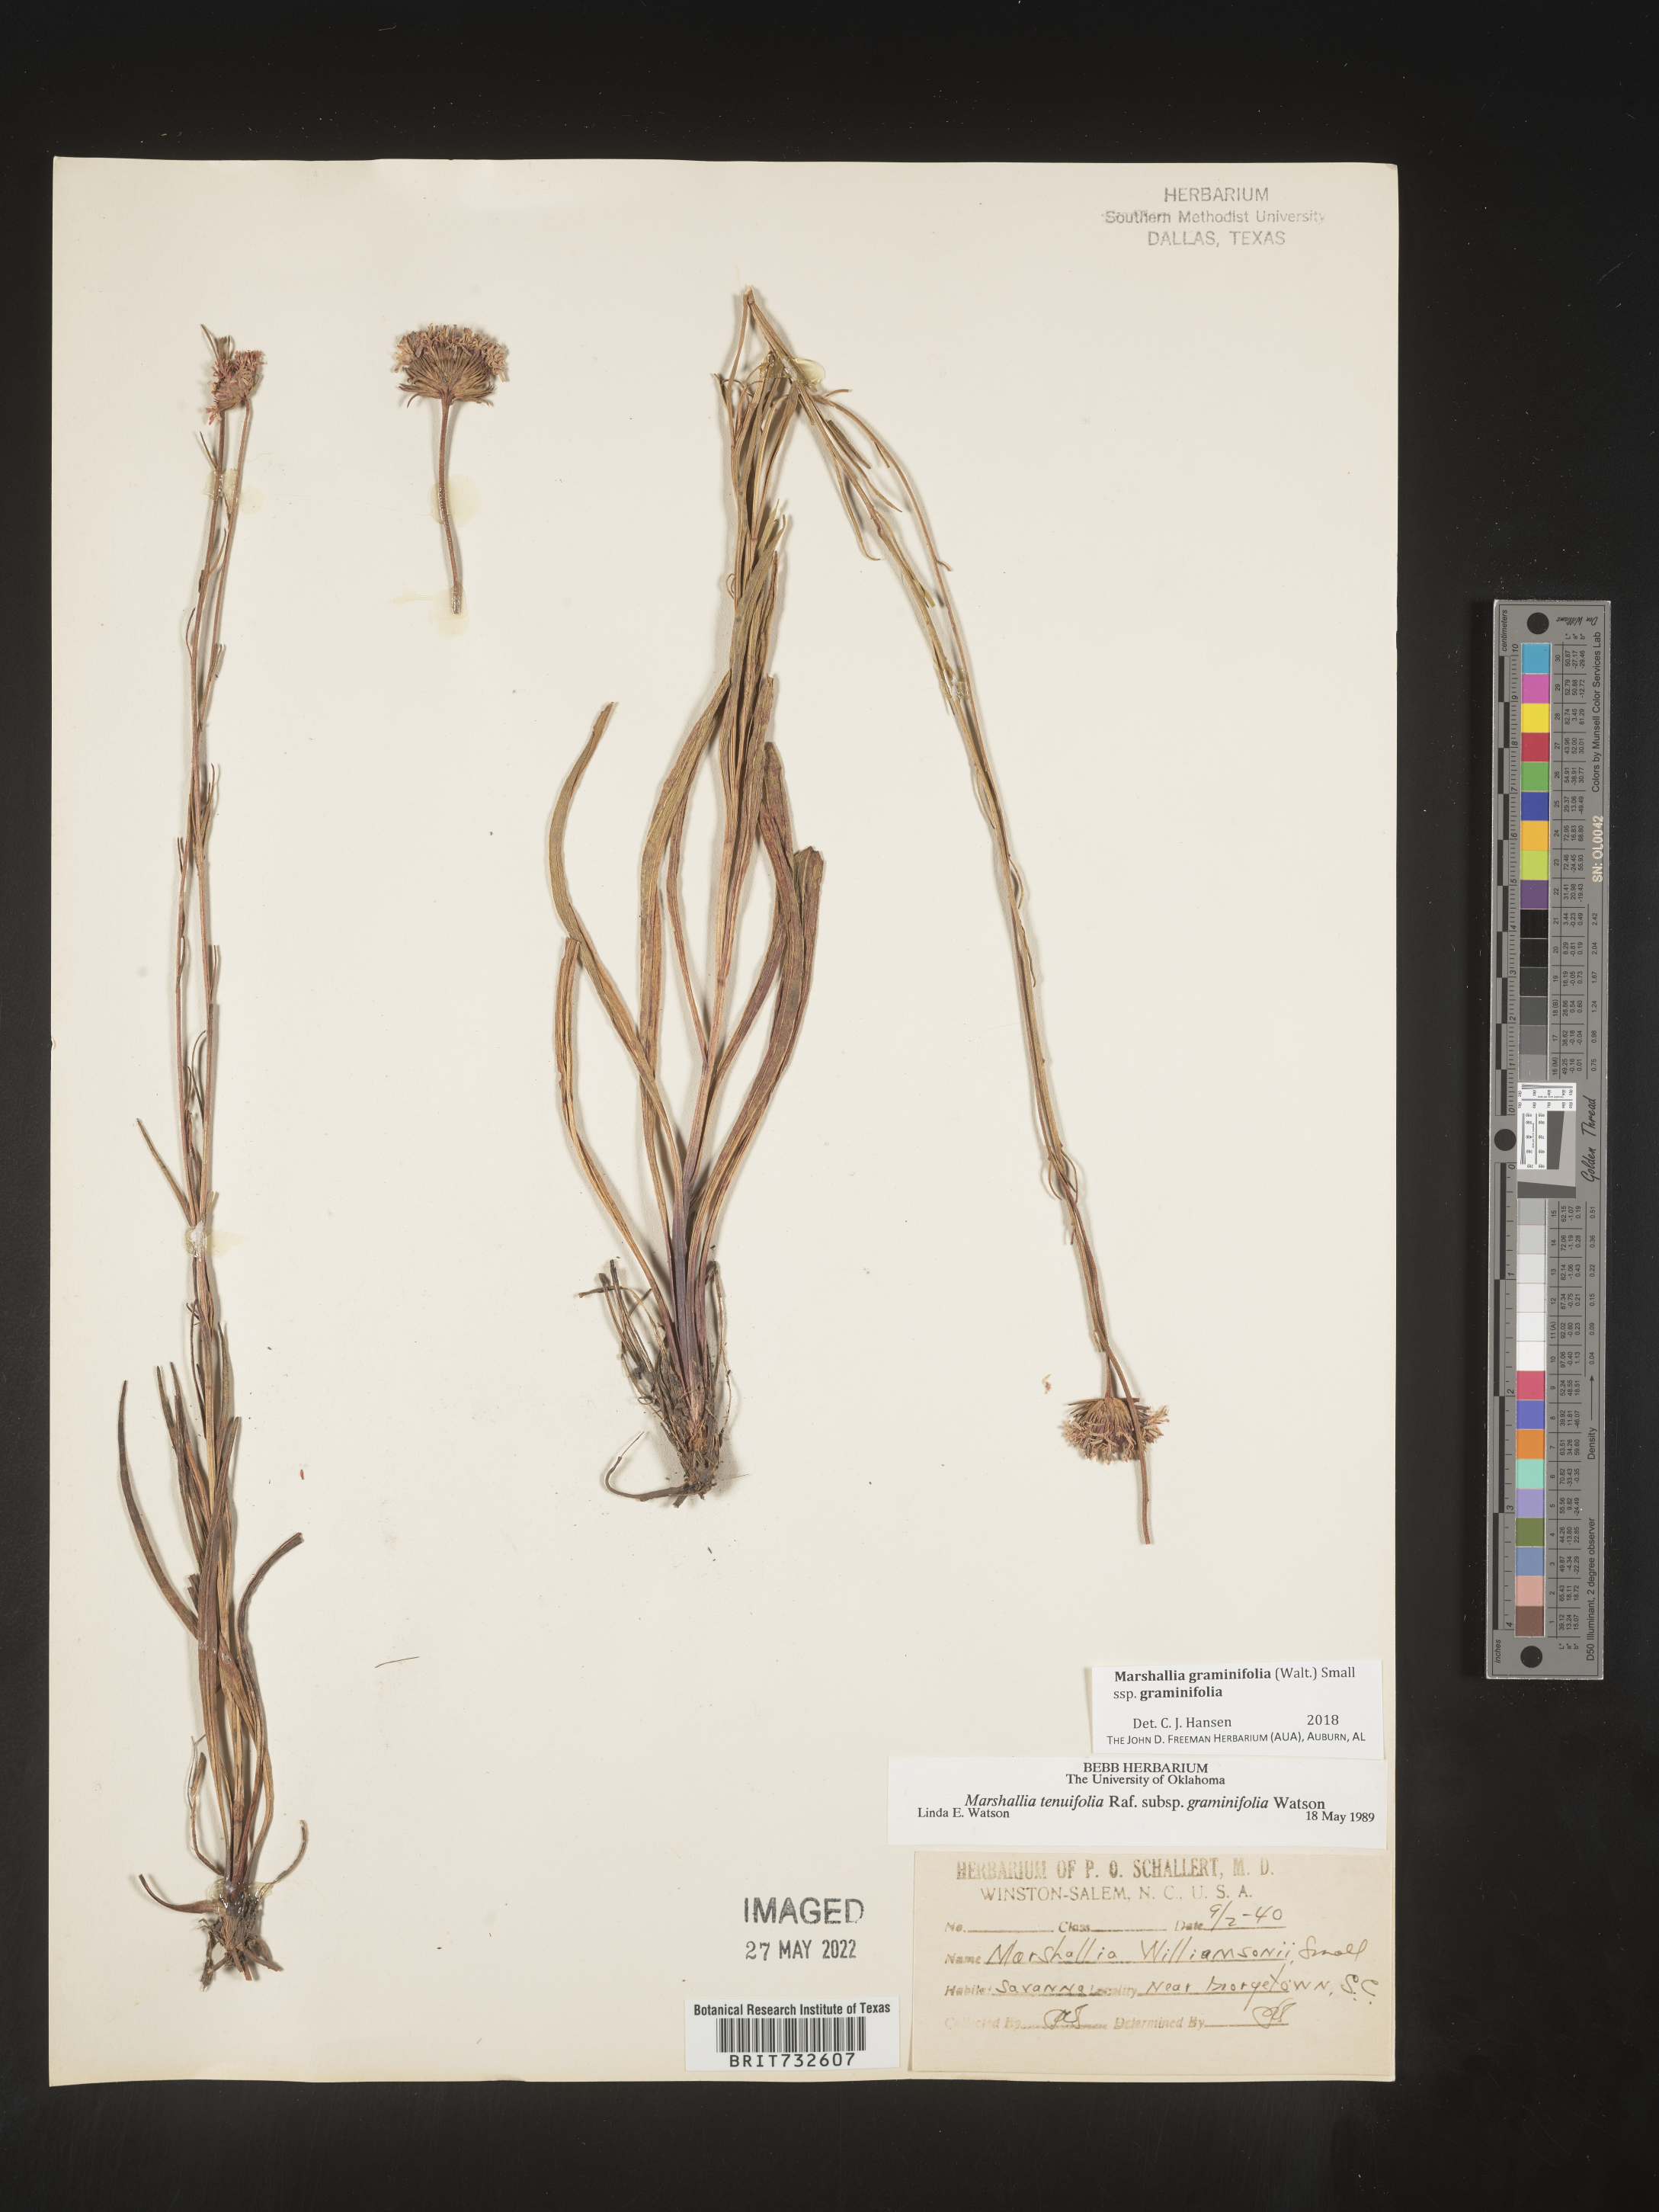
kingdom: Plantae
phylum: Tracheophyta
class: Magnoliopsida
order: Asterales
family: Asteraceae
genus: Marshallia
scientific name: Marshallia graminifolia
